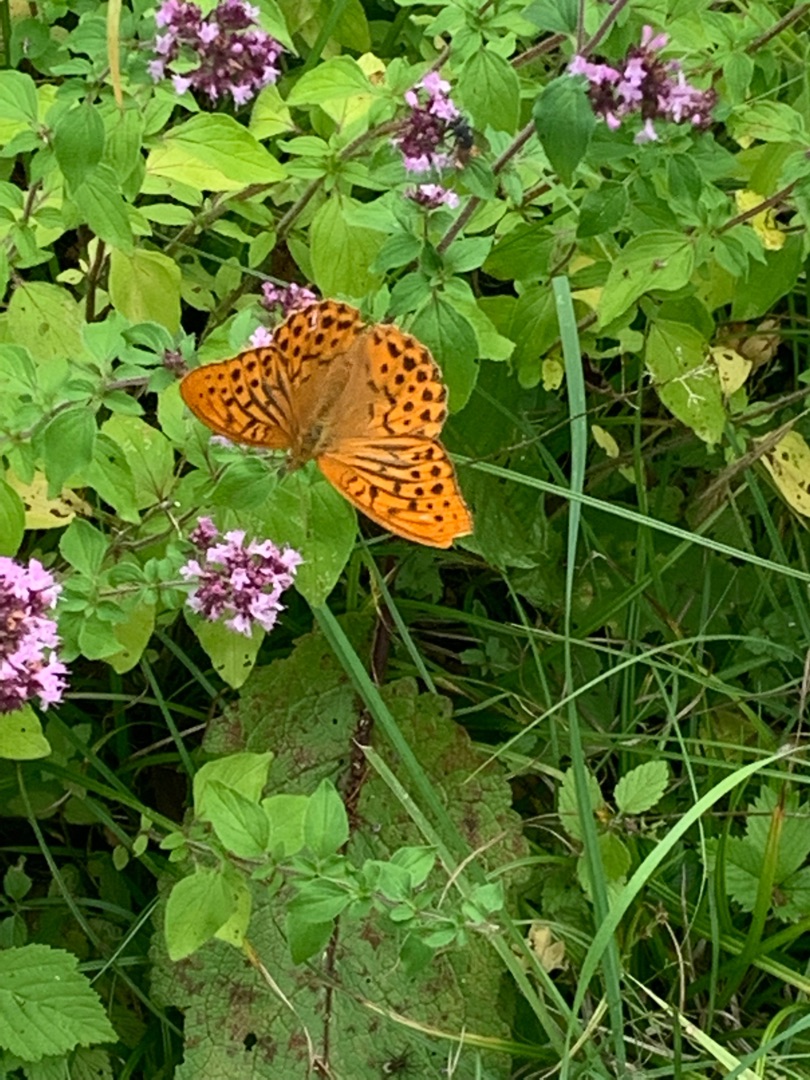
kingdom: Animalia
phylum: Arthropoda
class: Insecta
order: Lepidoptera
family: Nymphalidae
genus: Argynnis
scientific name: Argynnis paphia
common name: Kejserkåbe
